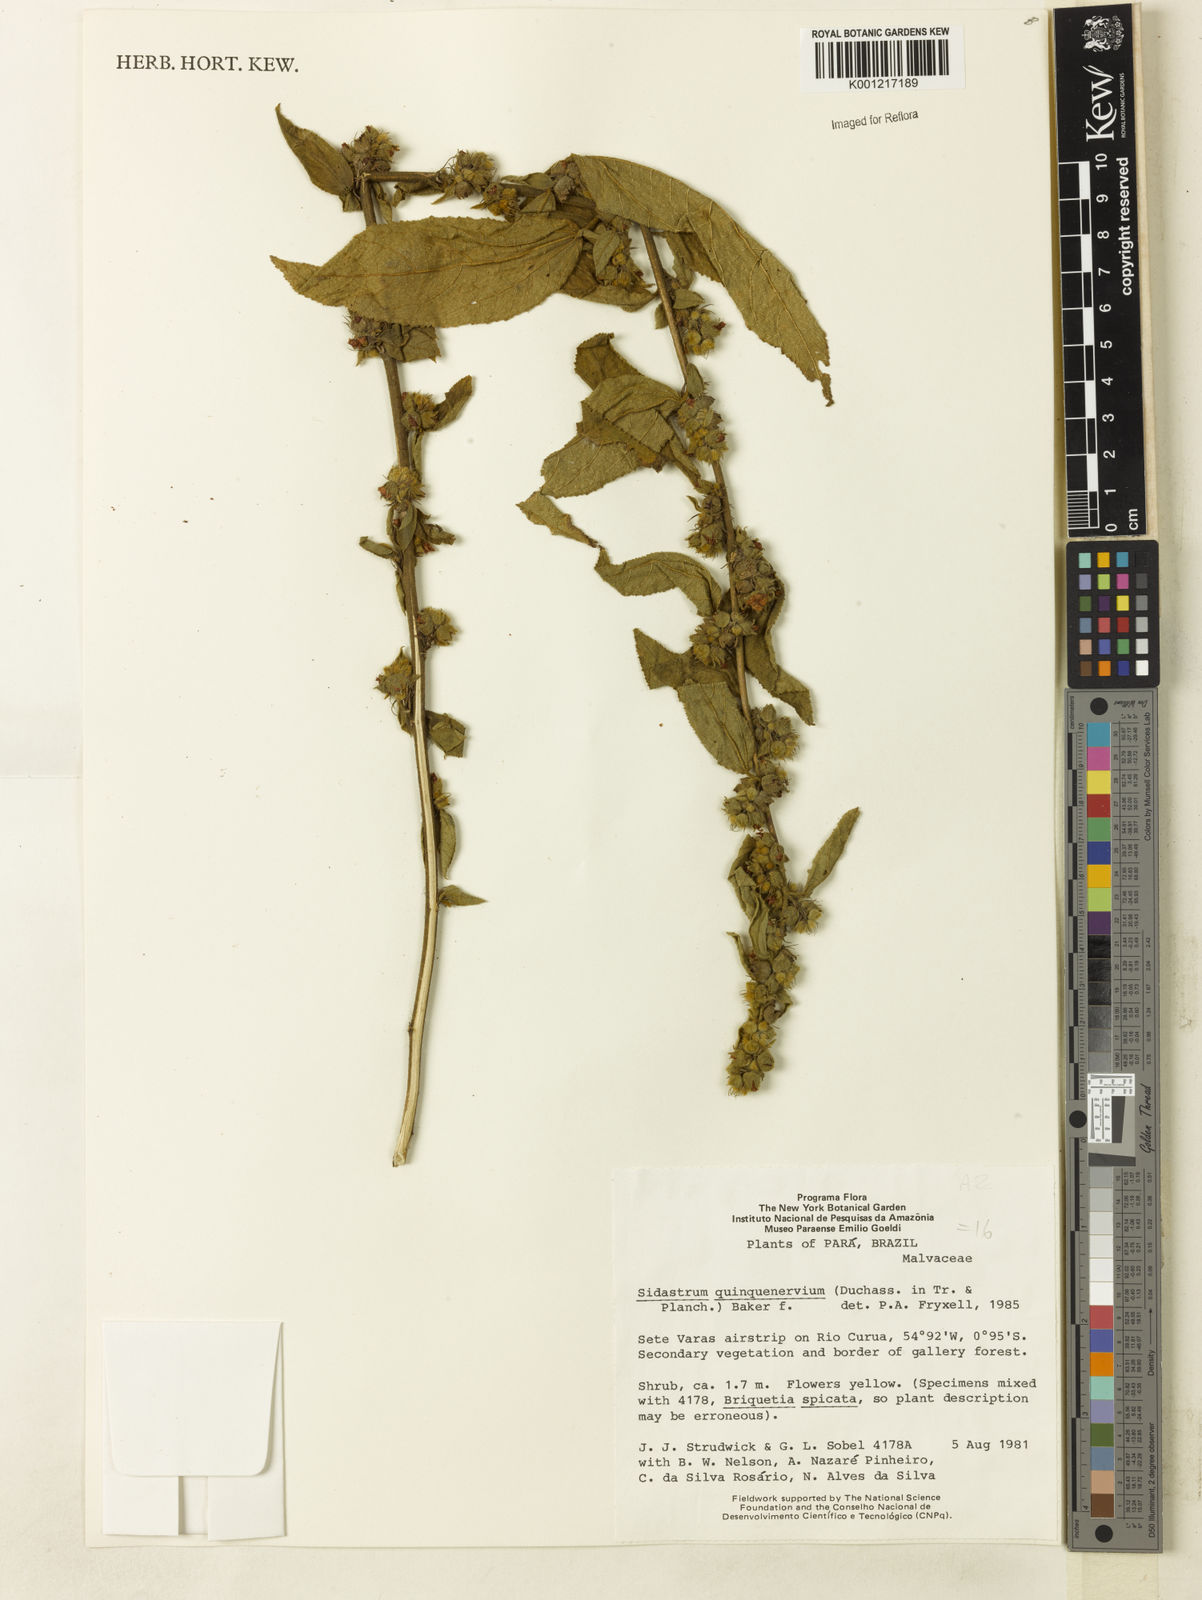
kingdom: Plantae
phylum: Tracheophyta
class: Magnoliopsida
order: Malvales
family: Malvaceae
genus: Sidastrum
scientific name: Sidastrum quinquenervium
